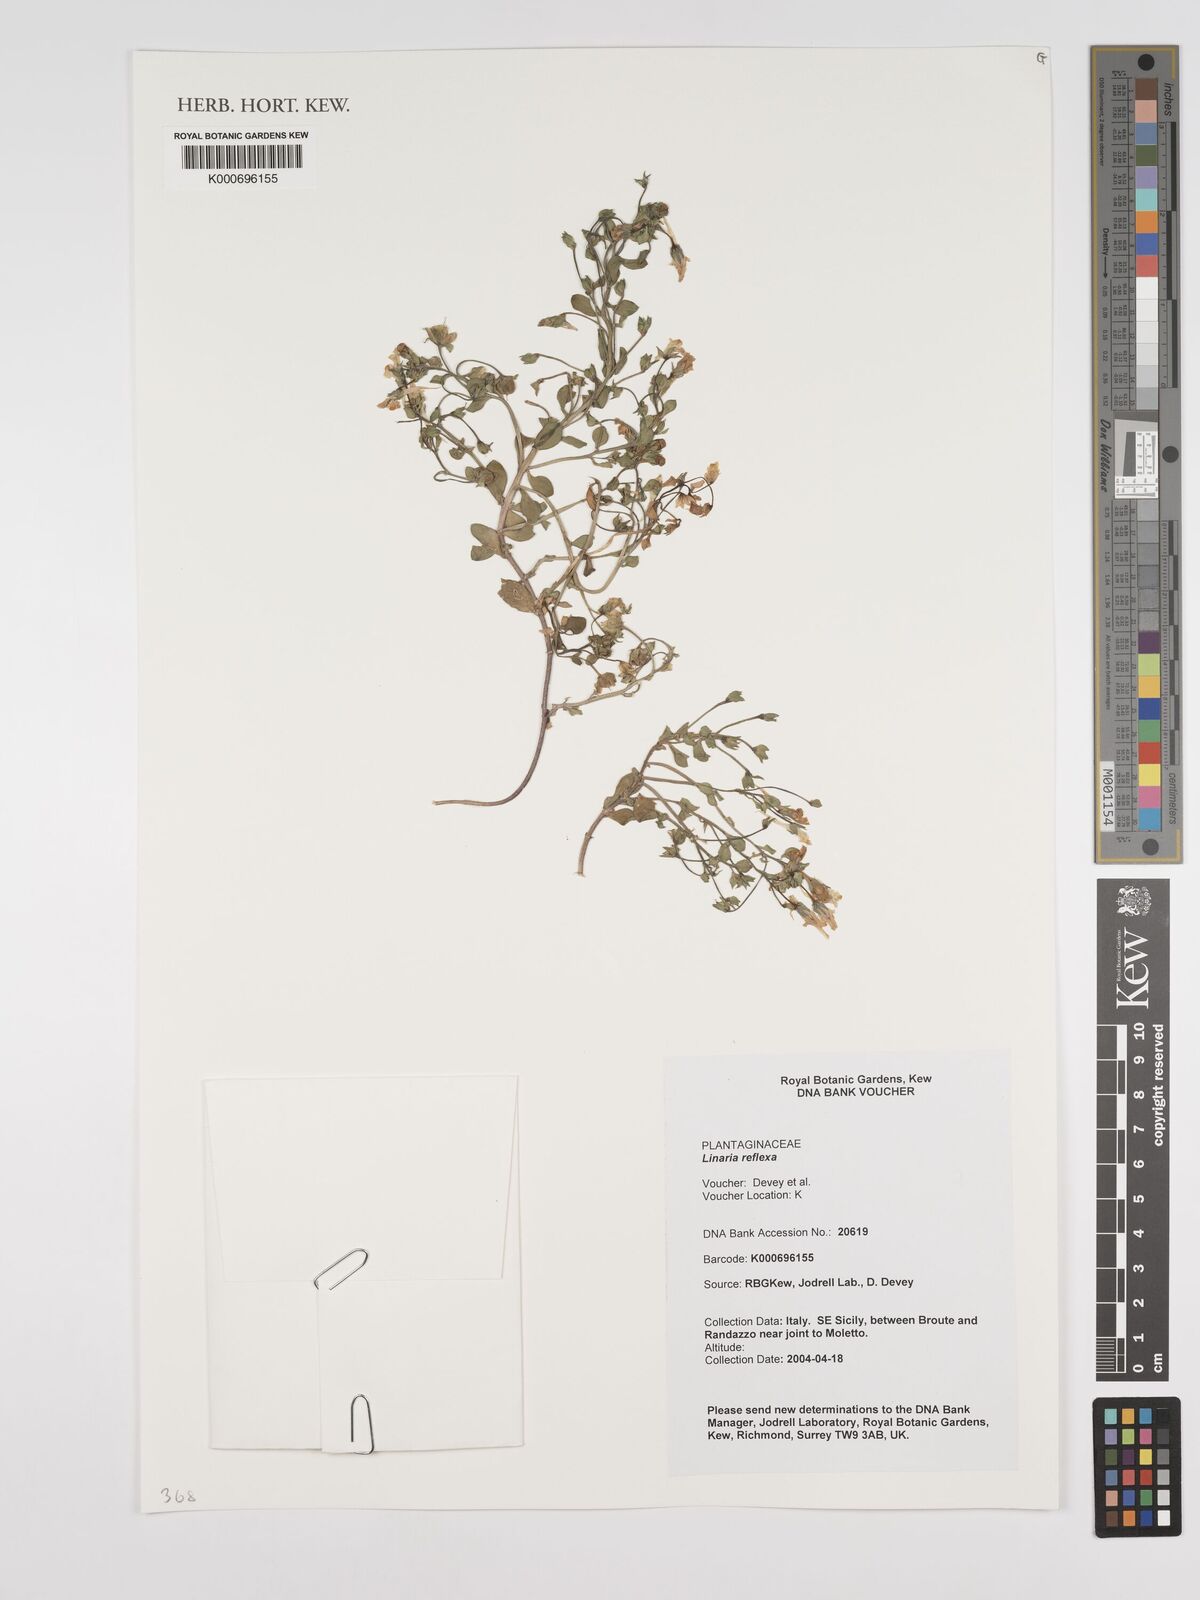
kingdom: Plantae
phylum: Tracheophyta
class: Magnoliopsida
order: Lamiales
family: Plantaginaceae
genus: Linaria
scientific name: Linaria reflexa
